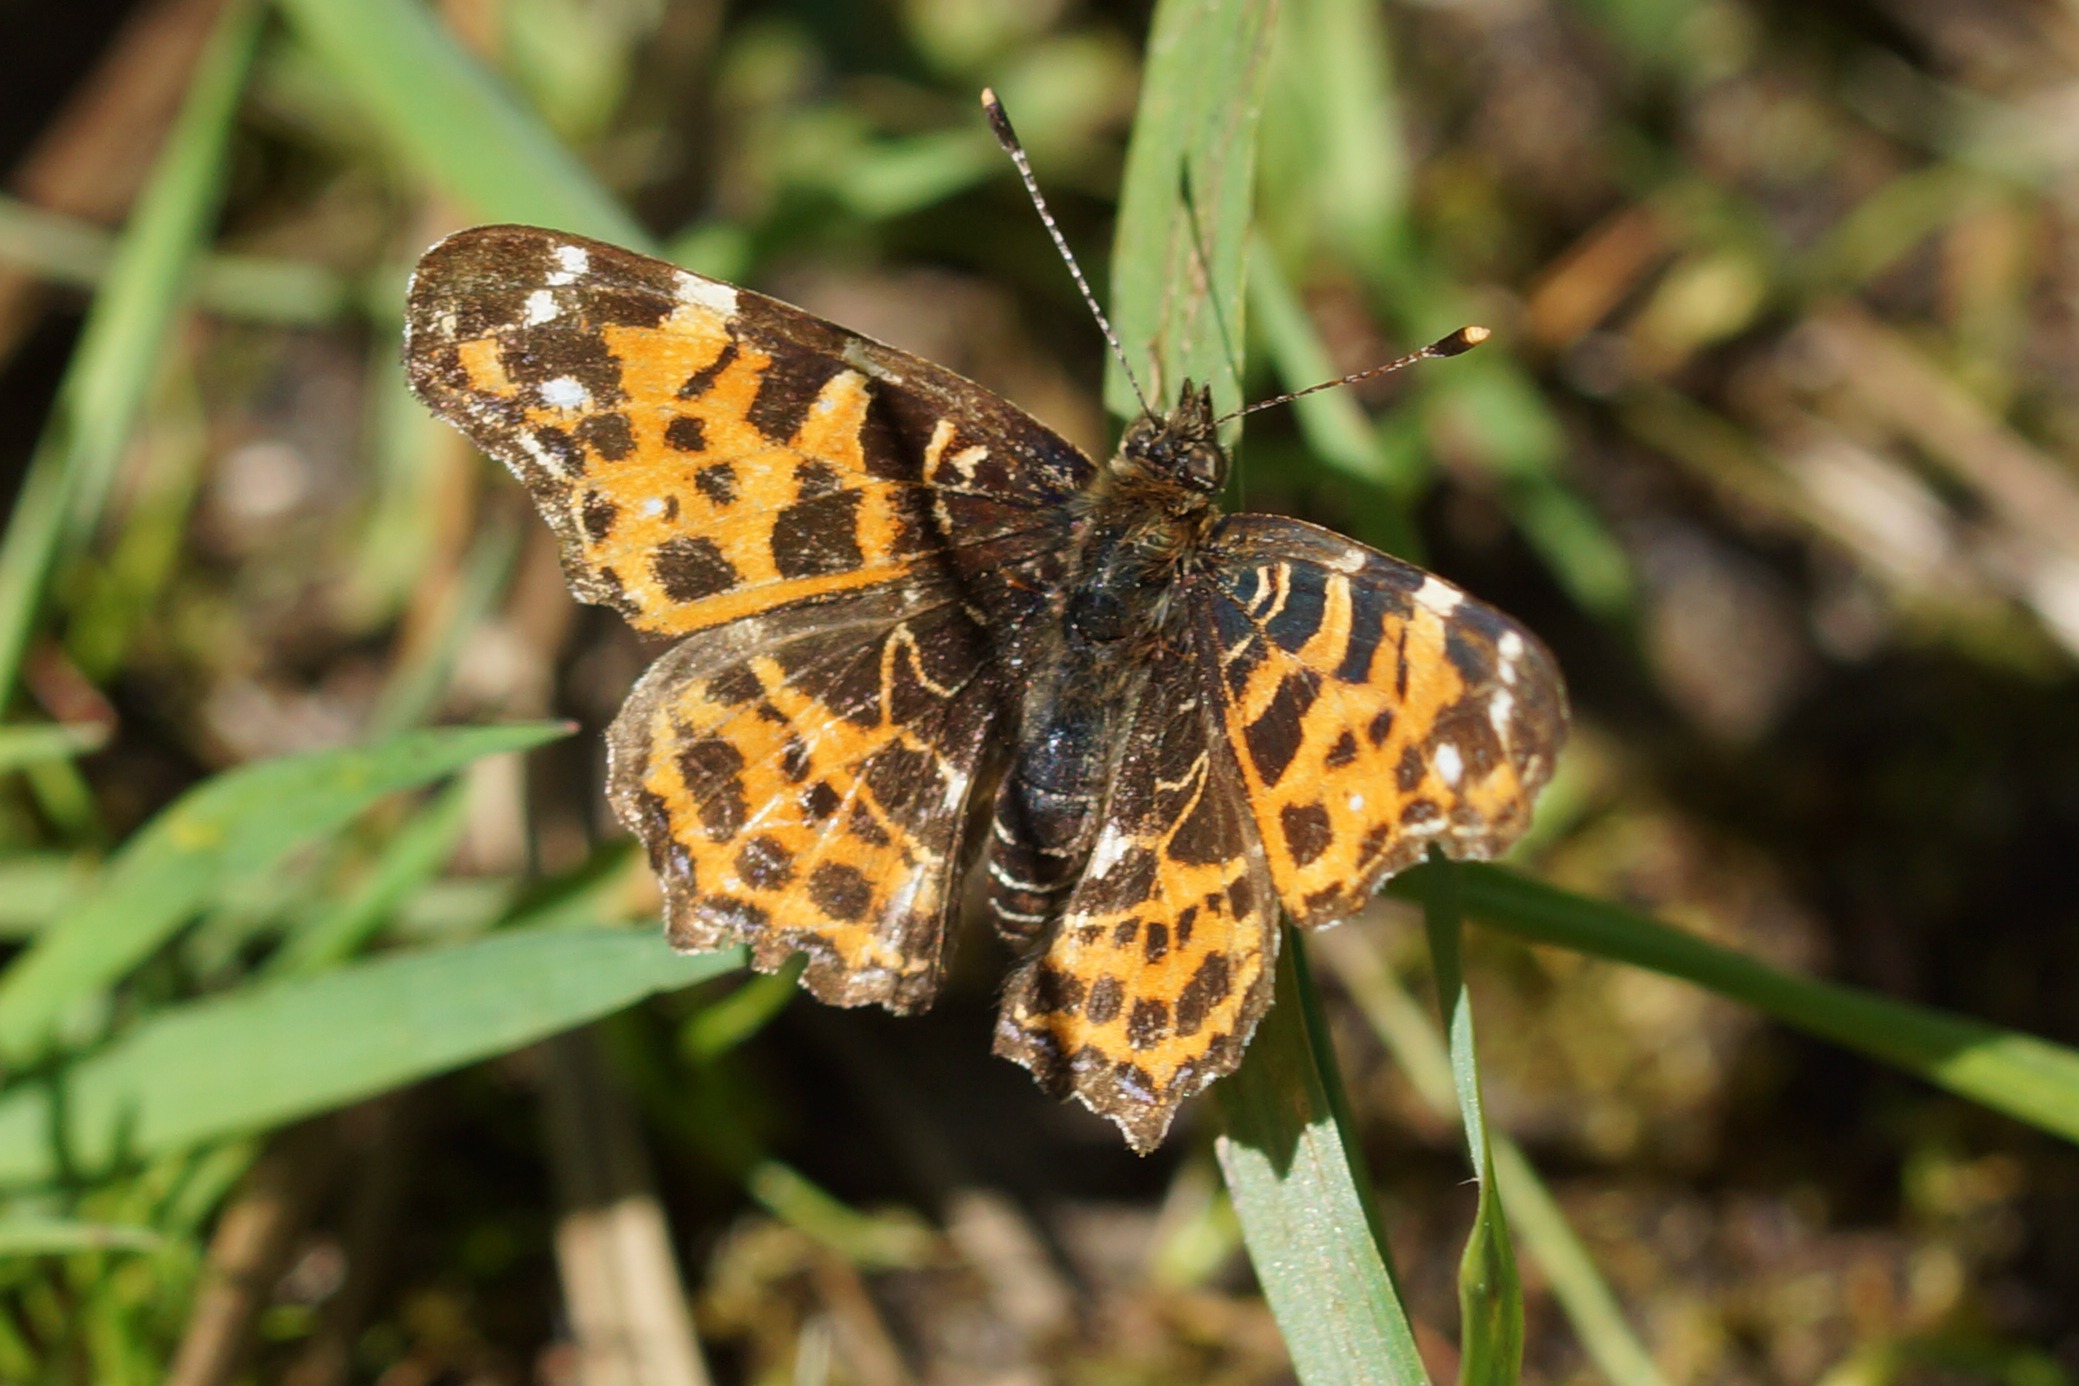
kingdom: Animalia
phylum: Arthropoda
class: Insecta
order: Lepidoptera
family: Nymphalidae
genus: Araschnia
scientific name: Araschnia levana
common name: Nældesommerfugl
